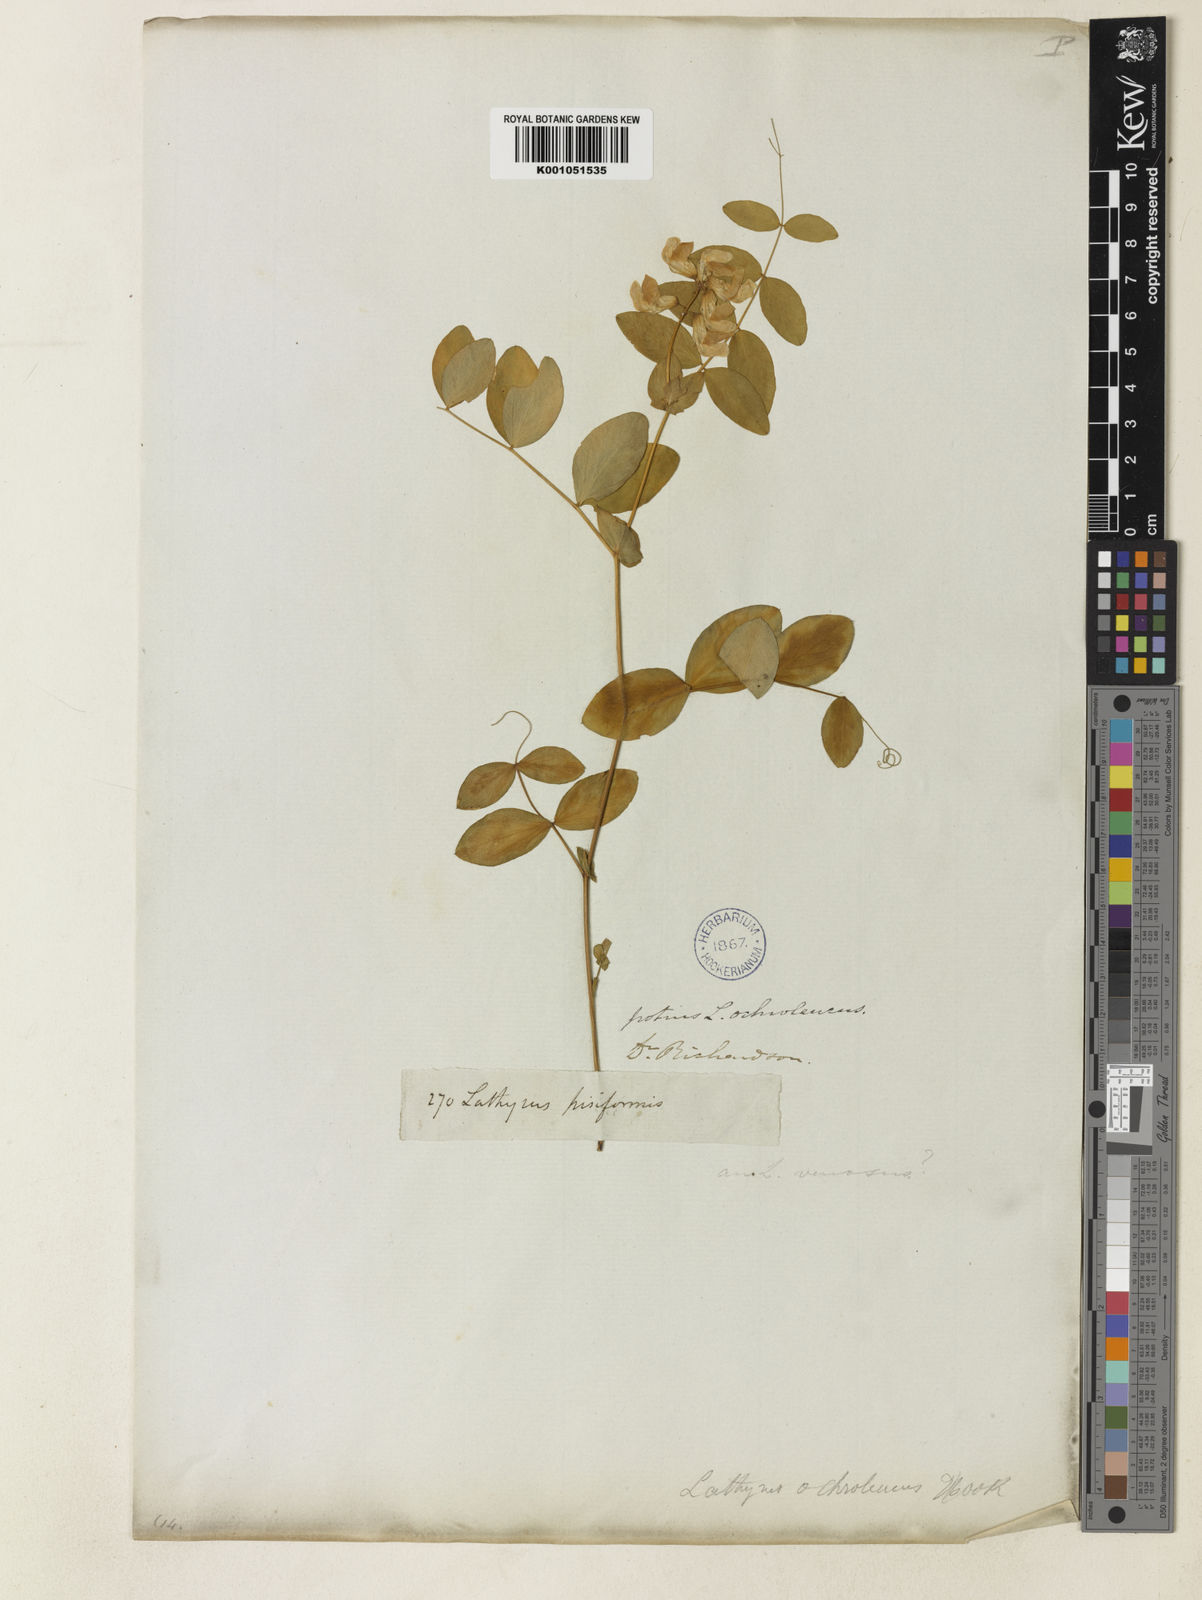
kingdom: Plantae
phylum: Tracheophyta
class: Magnoliopsida
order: Fabales
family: Fabaceae
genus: Lathyrus
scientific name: Lathyrus ochroleucus
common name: Pale vetchling
